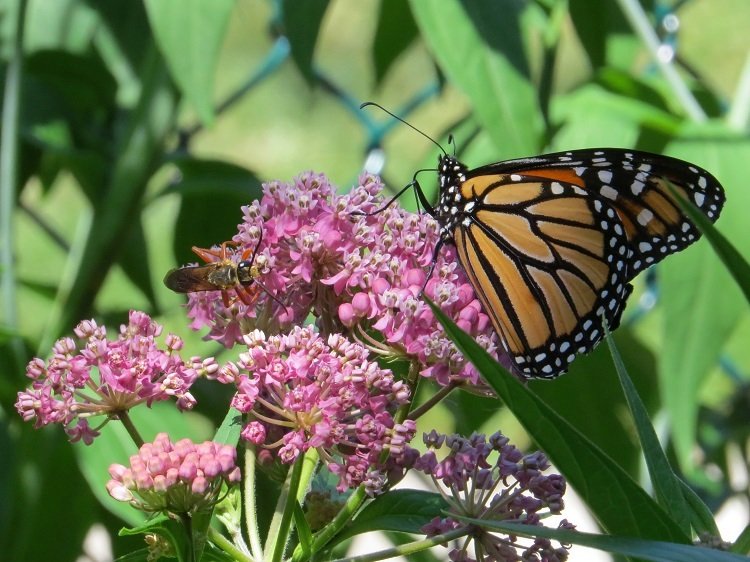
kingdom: Animalia
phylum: Arthropoda
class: Insecta
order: Lepidoptera
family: Nymphalidae
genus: Danaus
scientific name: Danaus plexippus
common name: Monarch
